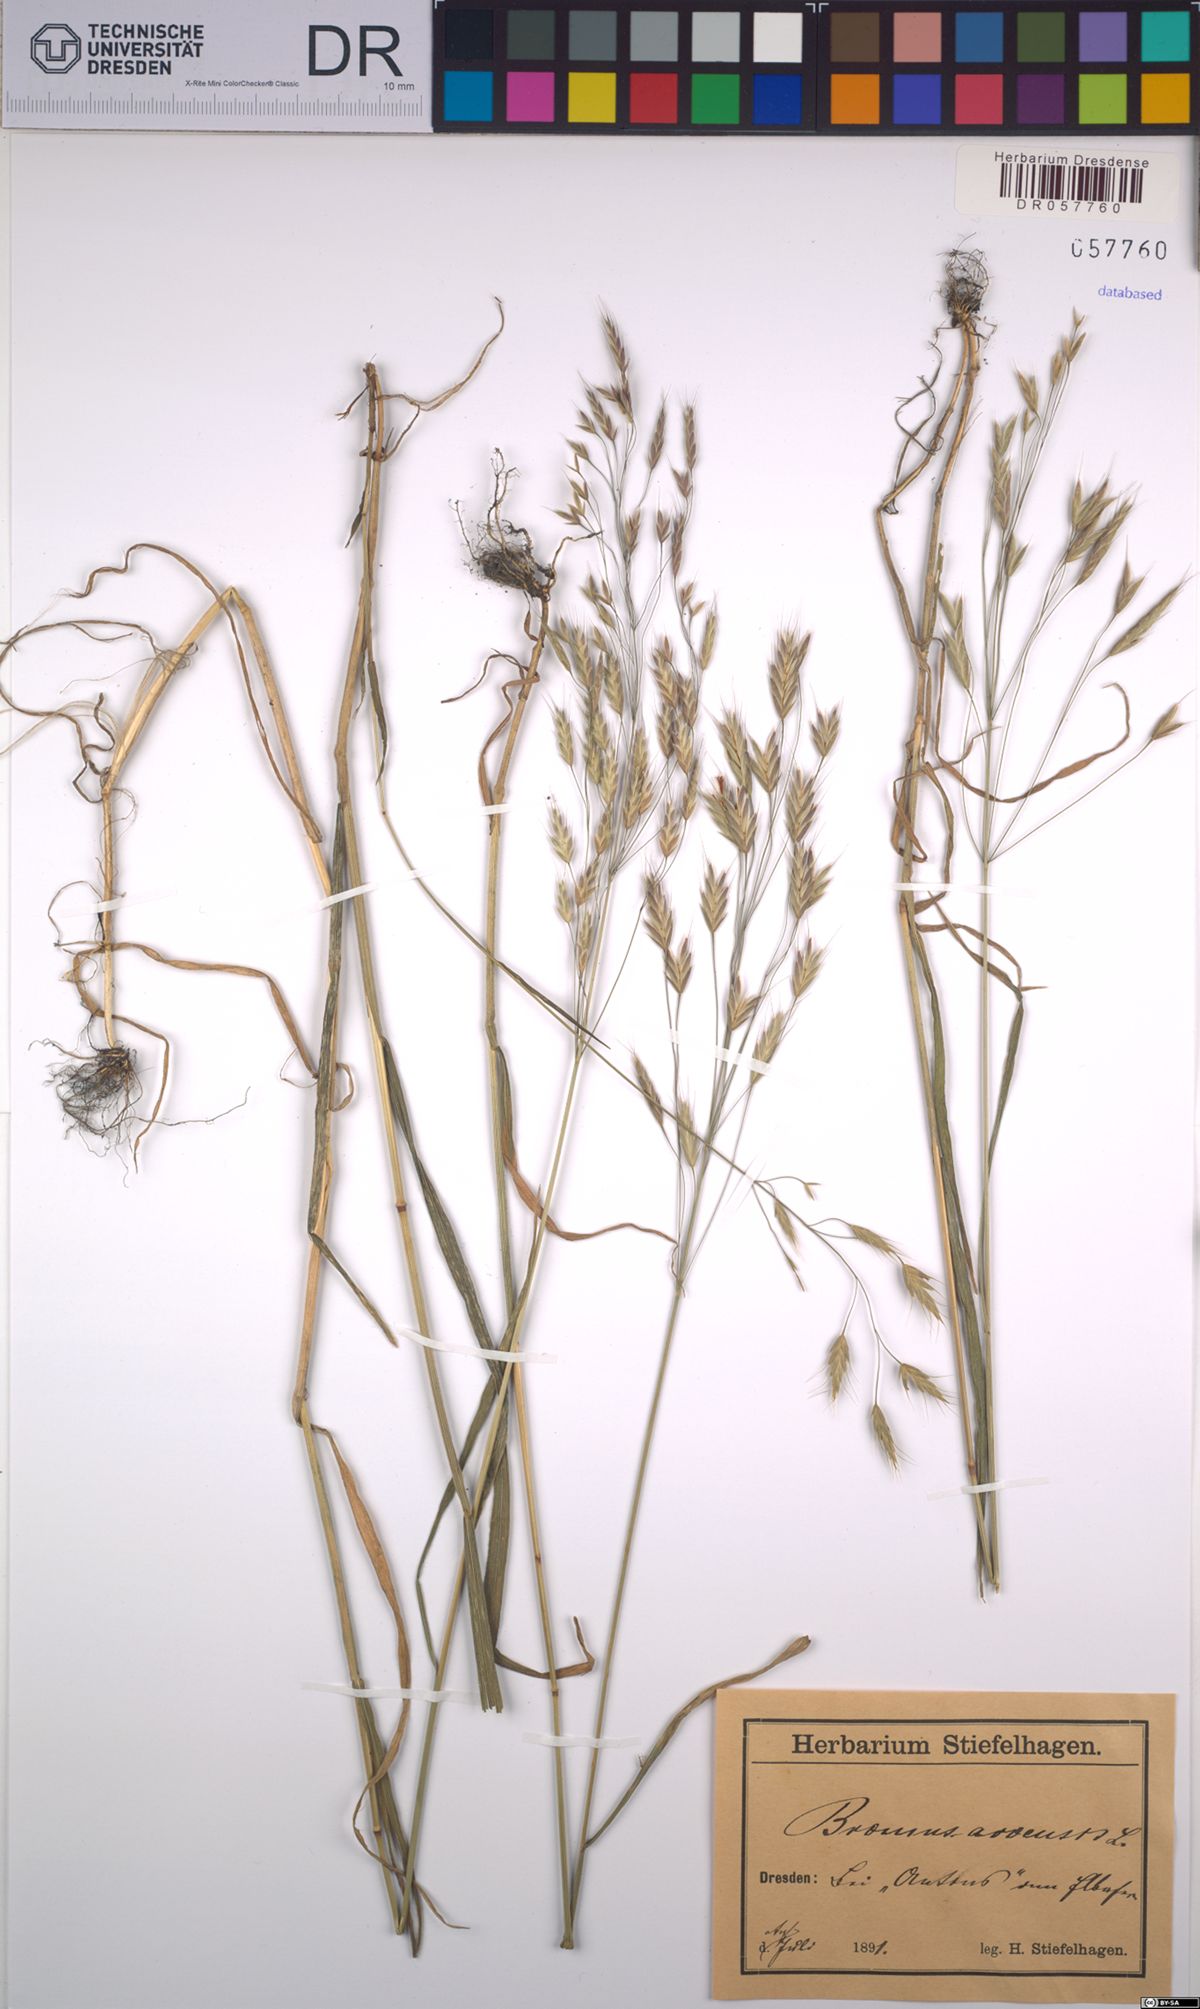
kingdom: Plantae
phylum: Tracheophyta
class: Liliopsida
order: Poales
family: Poaceae
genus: Bromus
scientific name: Bromus arvensis
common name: Field brome
